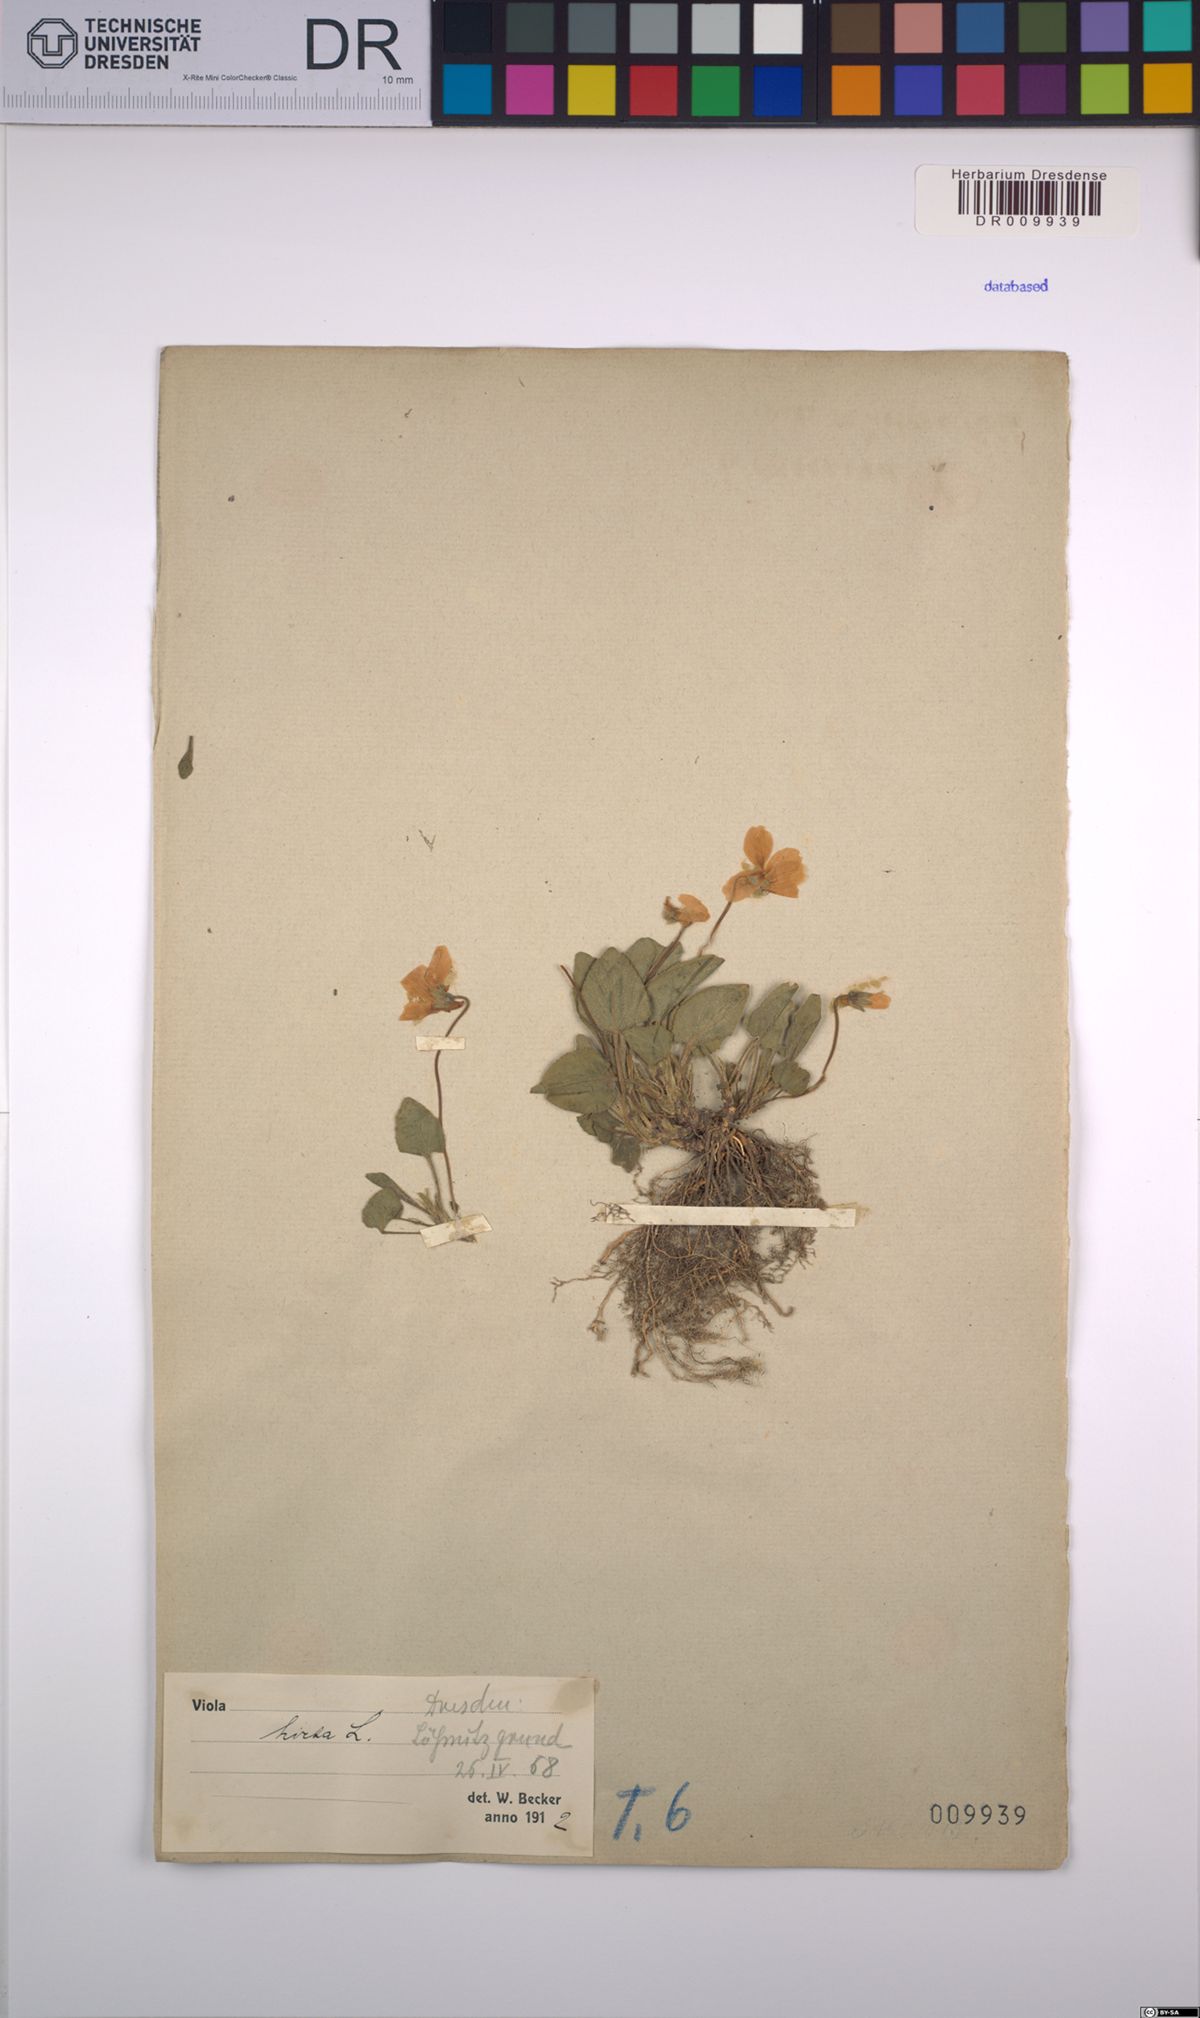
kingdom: Plantae
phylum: Tracheophyta
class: Magnoliopsida
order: Malpighiales
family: Violaceae
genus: Viola
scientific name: Viola hirta
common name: Hairy violet
